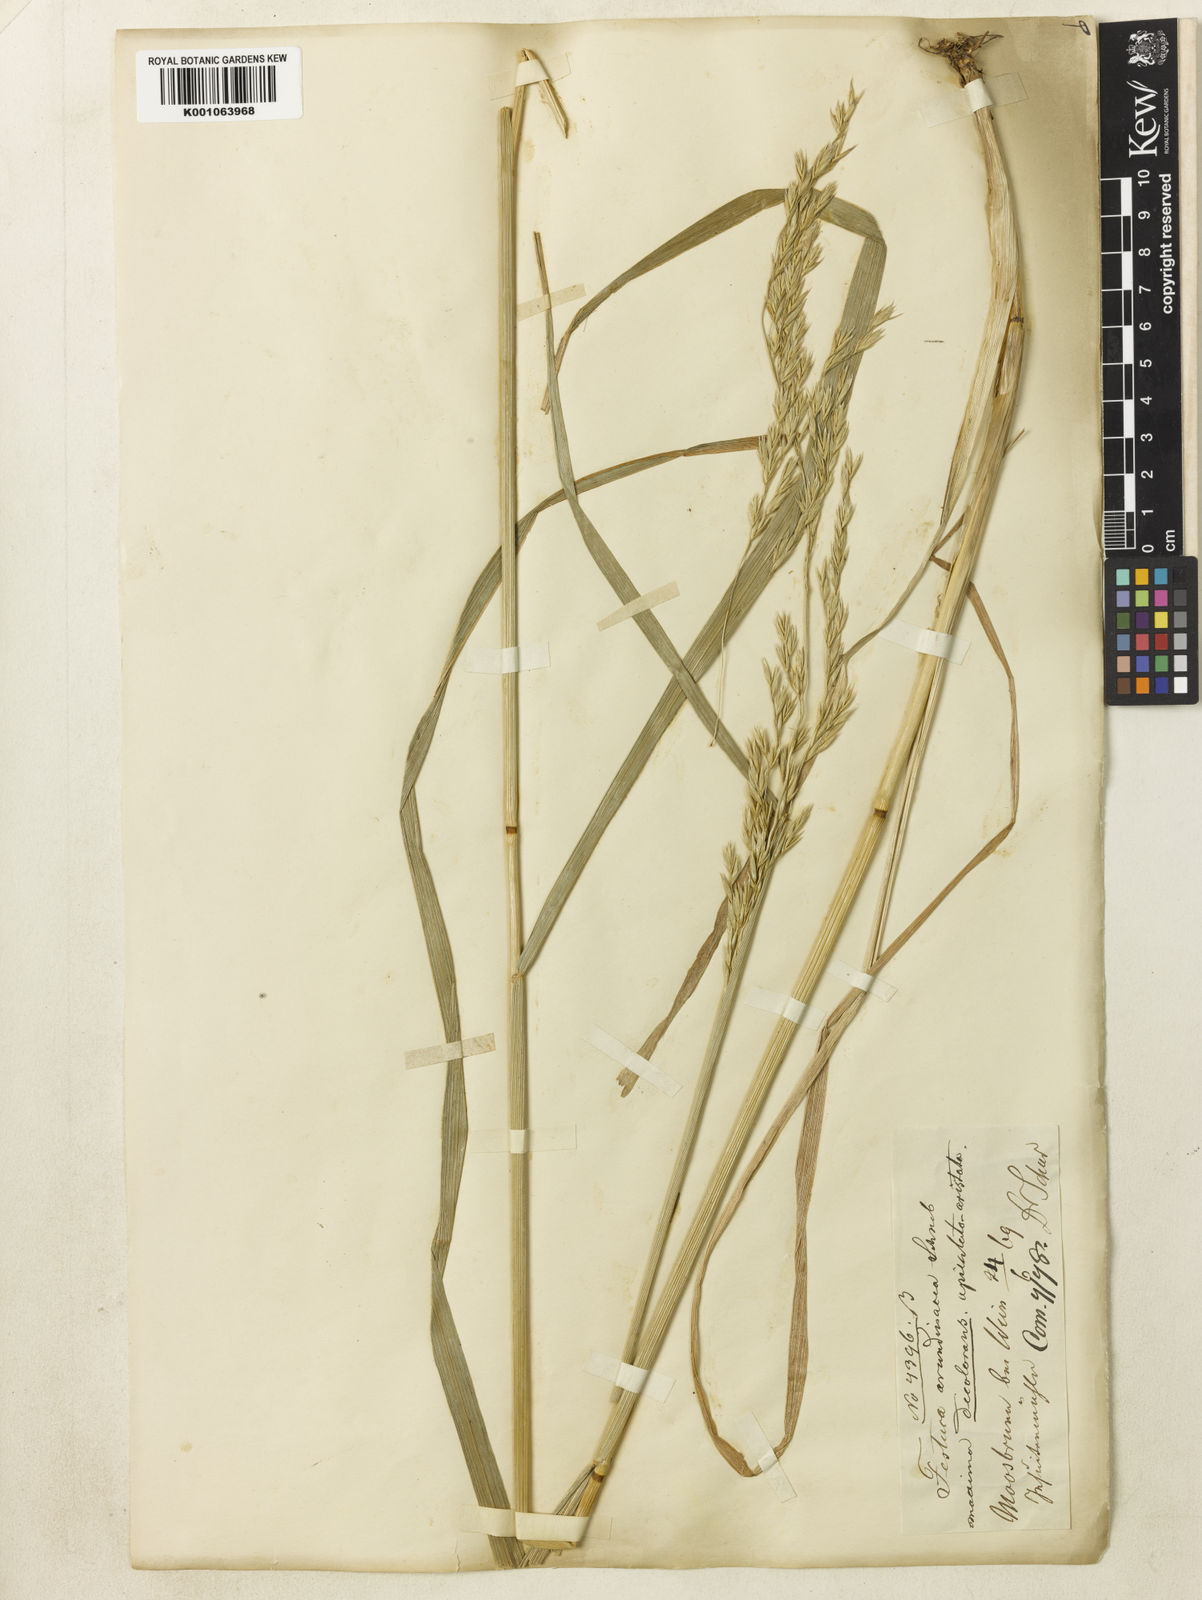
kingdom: Plantae
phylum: Tracheophyta
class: Liliopsida
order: Poales
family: Poaceae
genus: Lolium
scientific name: Lolium arundinaceum
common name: Reed fescue
